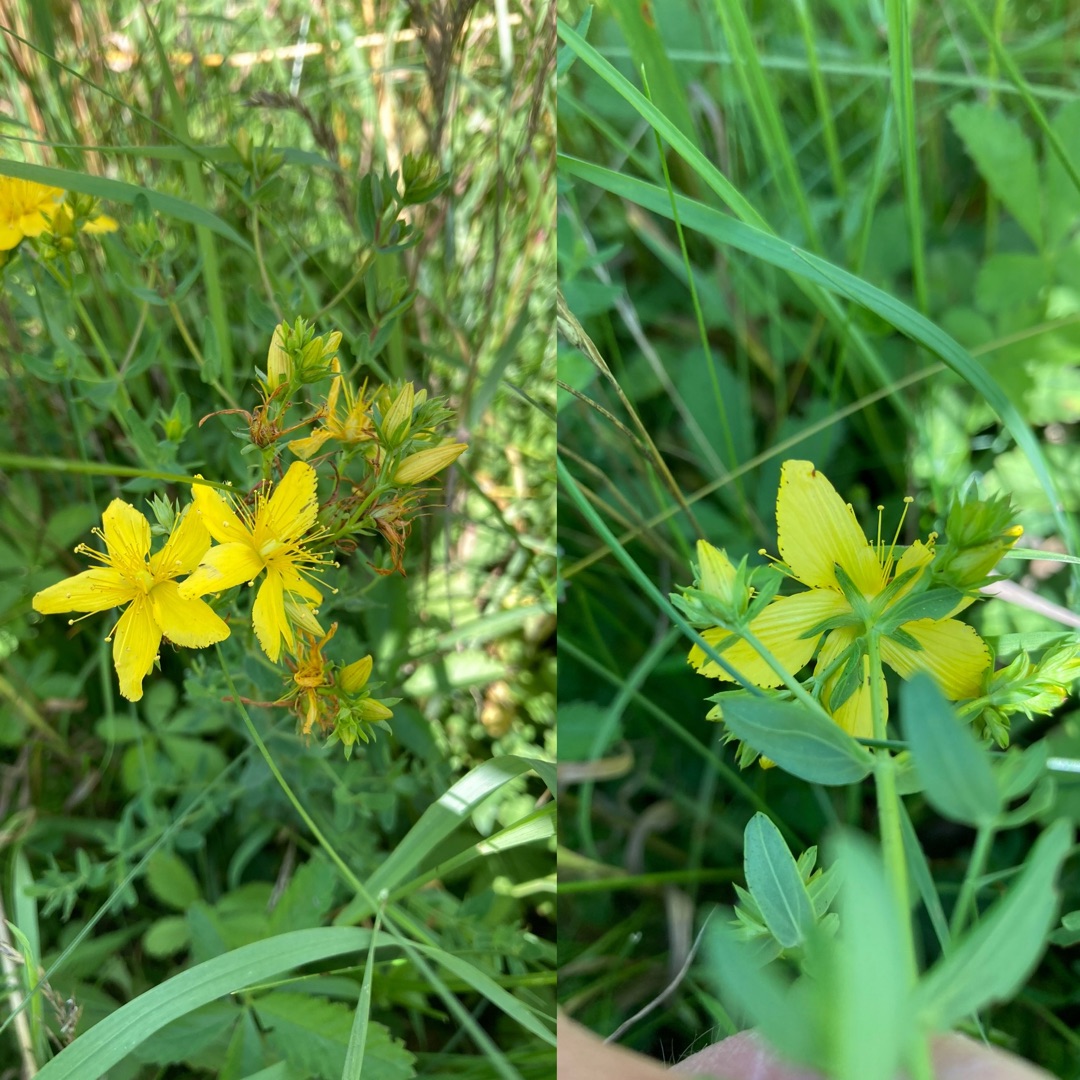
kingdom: Plantae
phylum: Tracheophyta
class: Magnoliopsida
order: Malpighiales
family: Hypericaceae
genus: Hypericum
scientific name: Hypericum perforatum
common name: Prikbladet perikon
